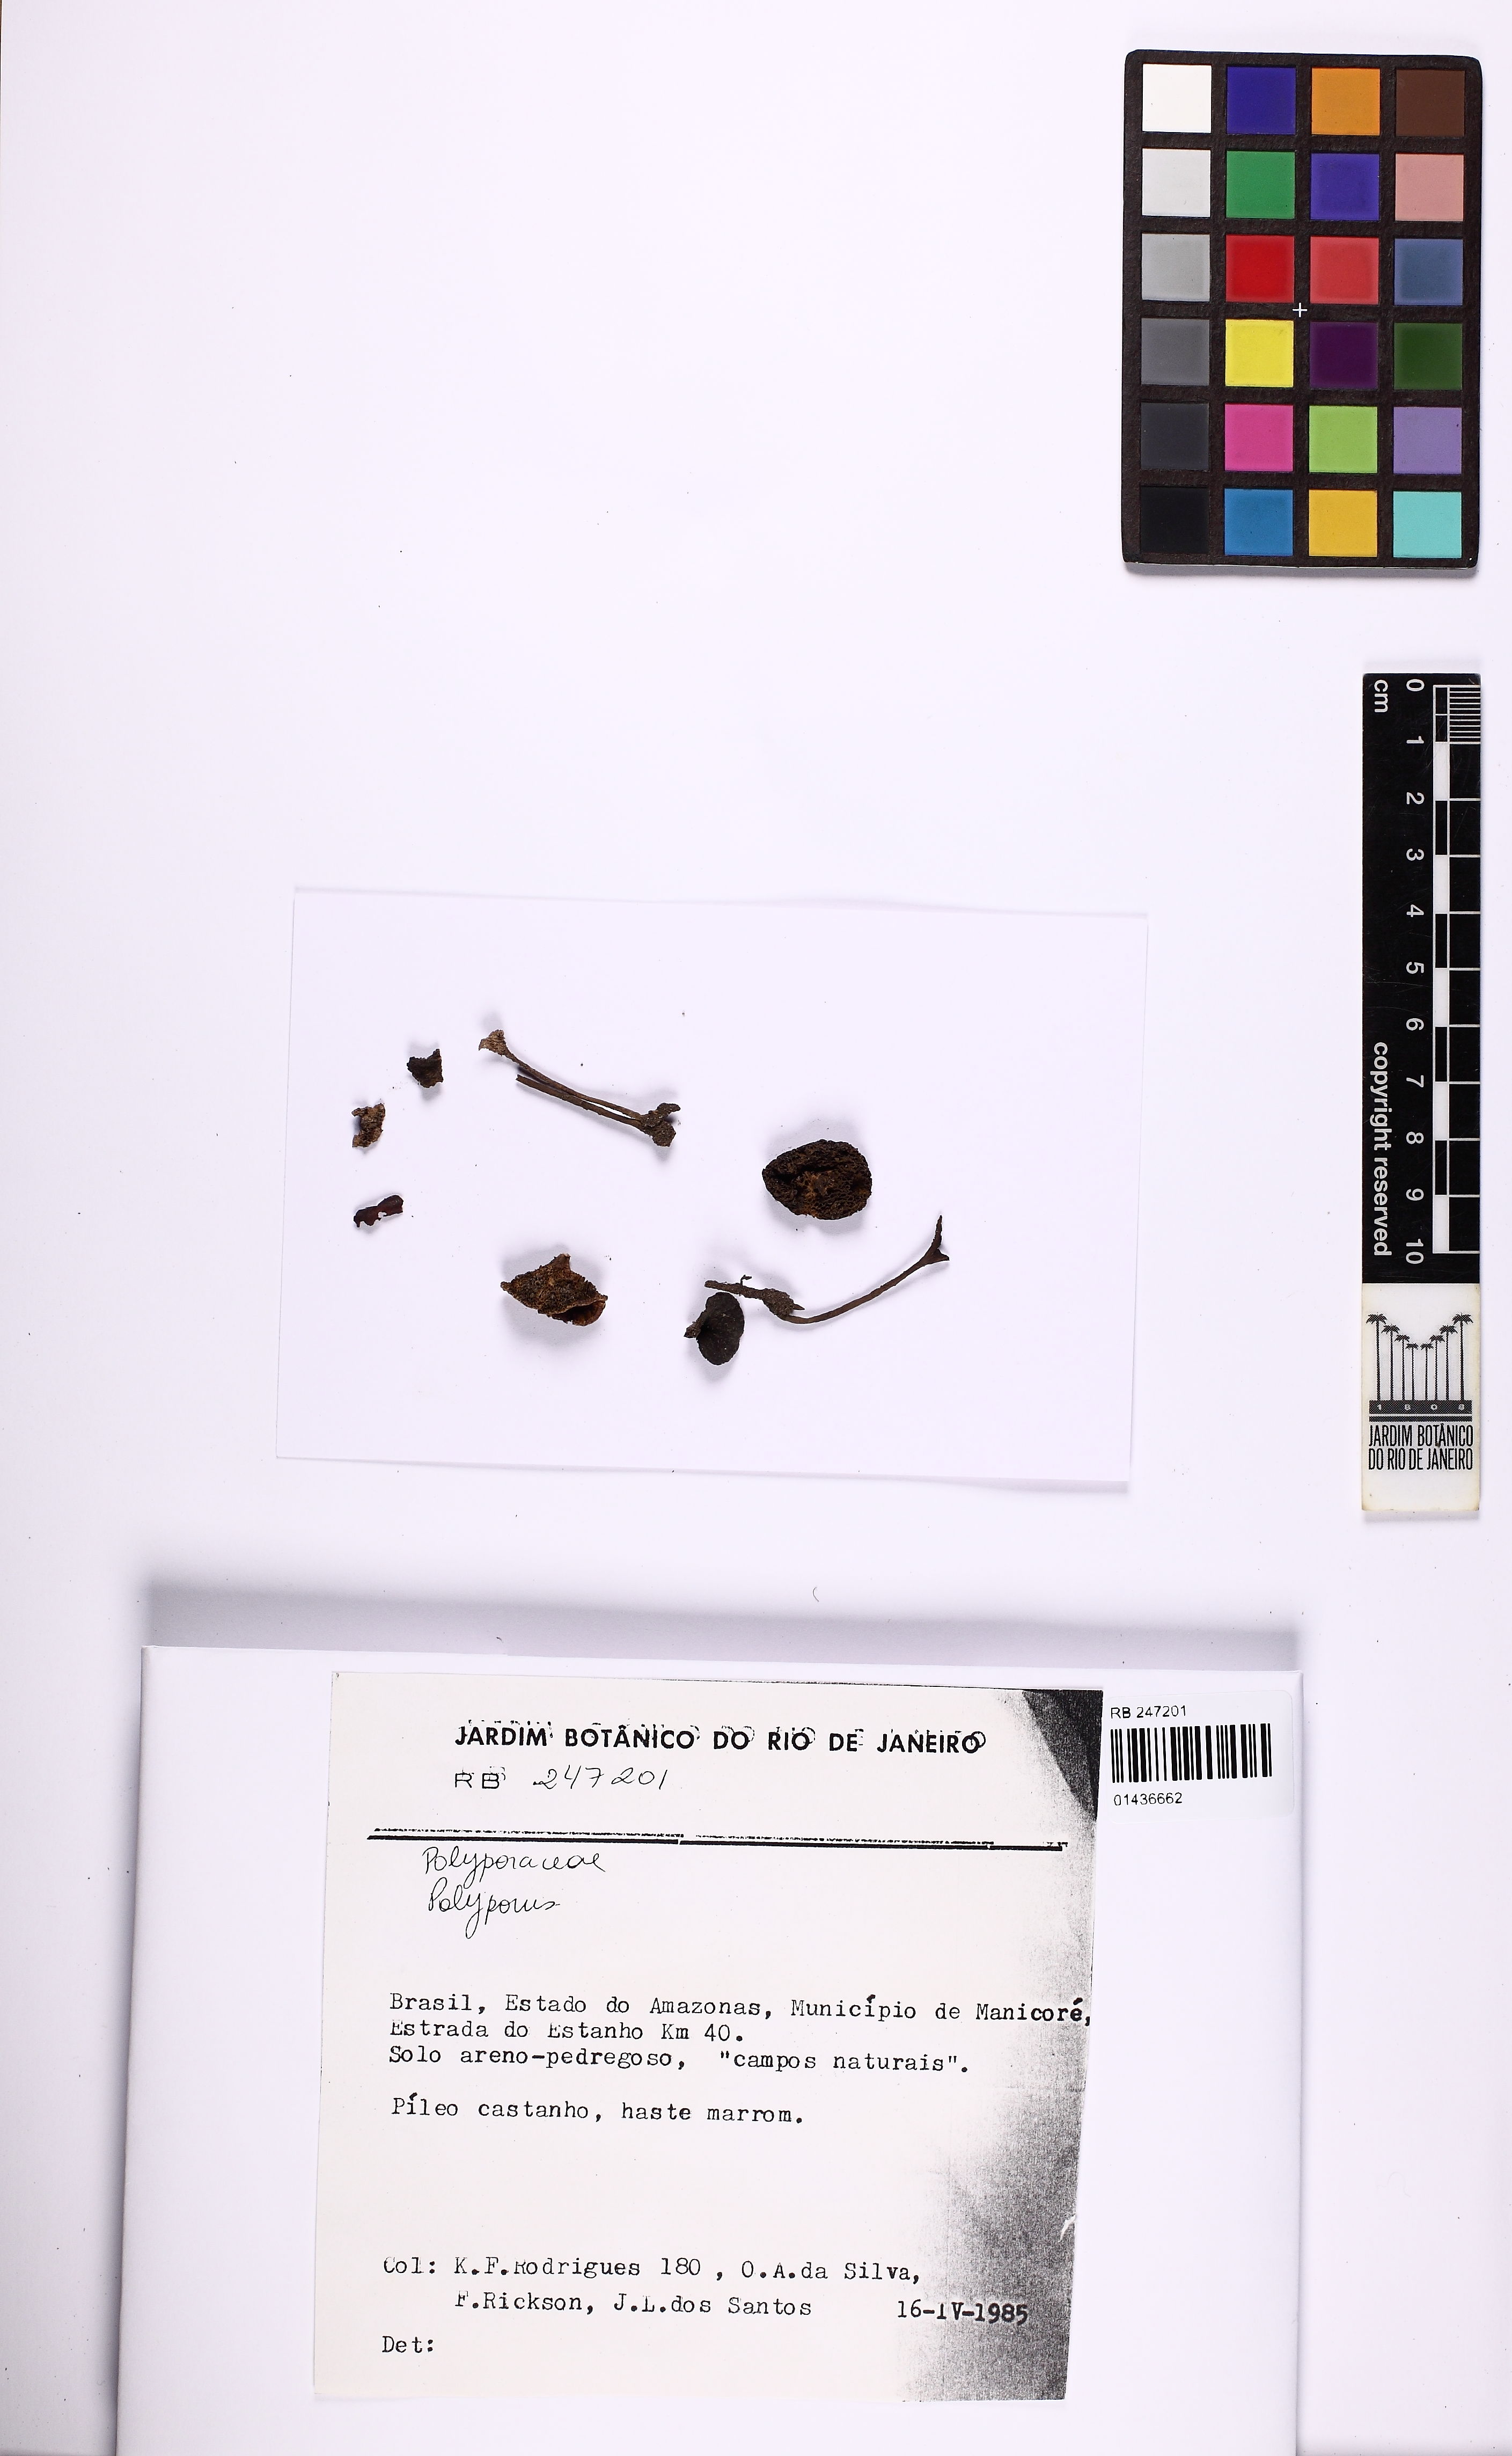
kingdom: Fungi
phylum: Basidiomycota
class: Agaricomycetes
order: Polyporales
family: Polyporaceae
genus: Polyporus
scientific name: Polyporus
